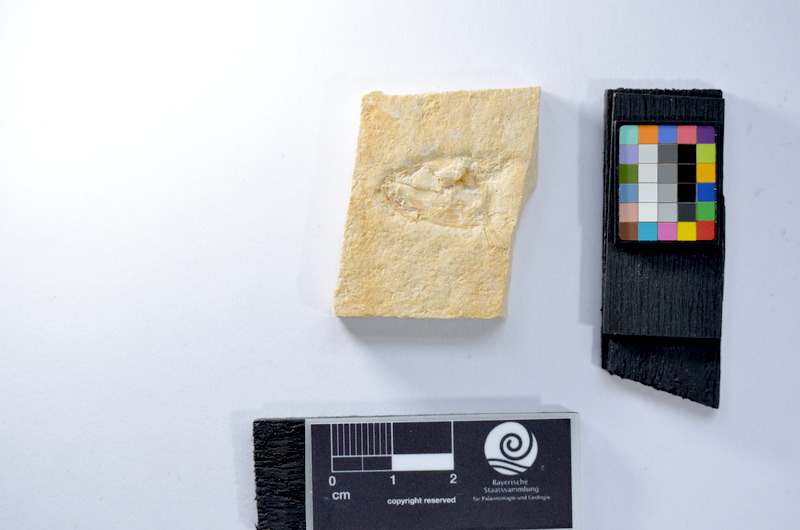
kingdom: Animalia
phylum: Chordata
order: Salmoniformes
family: Orthogonikleithridae
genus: Leptolepides
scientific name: Leptolepides
